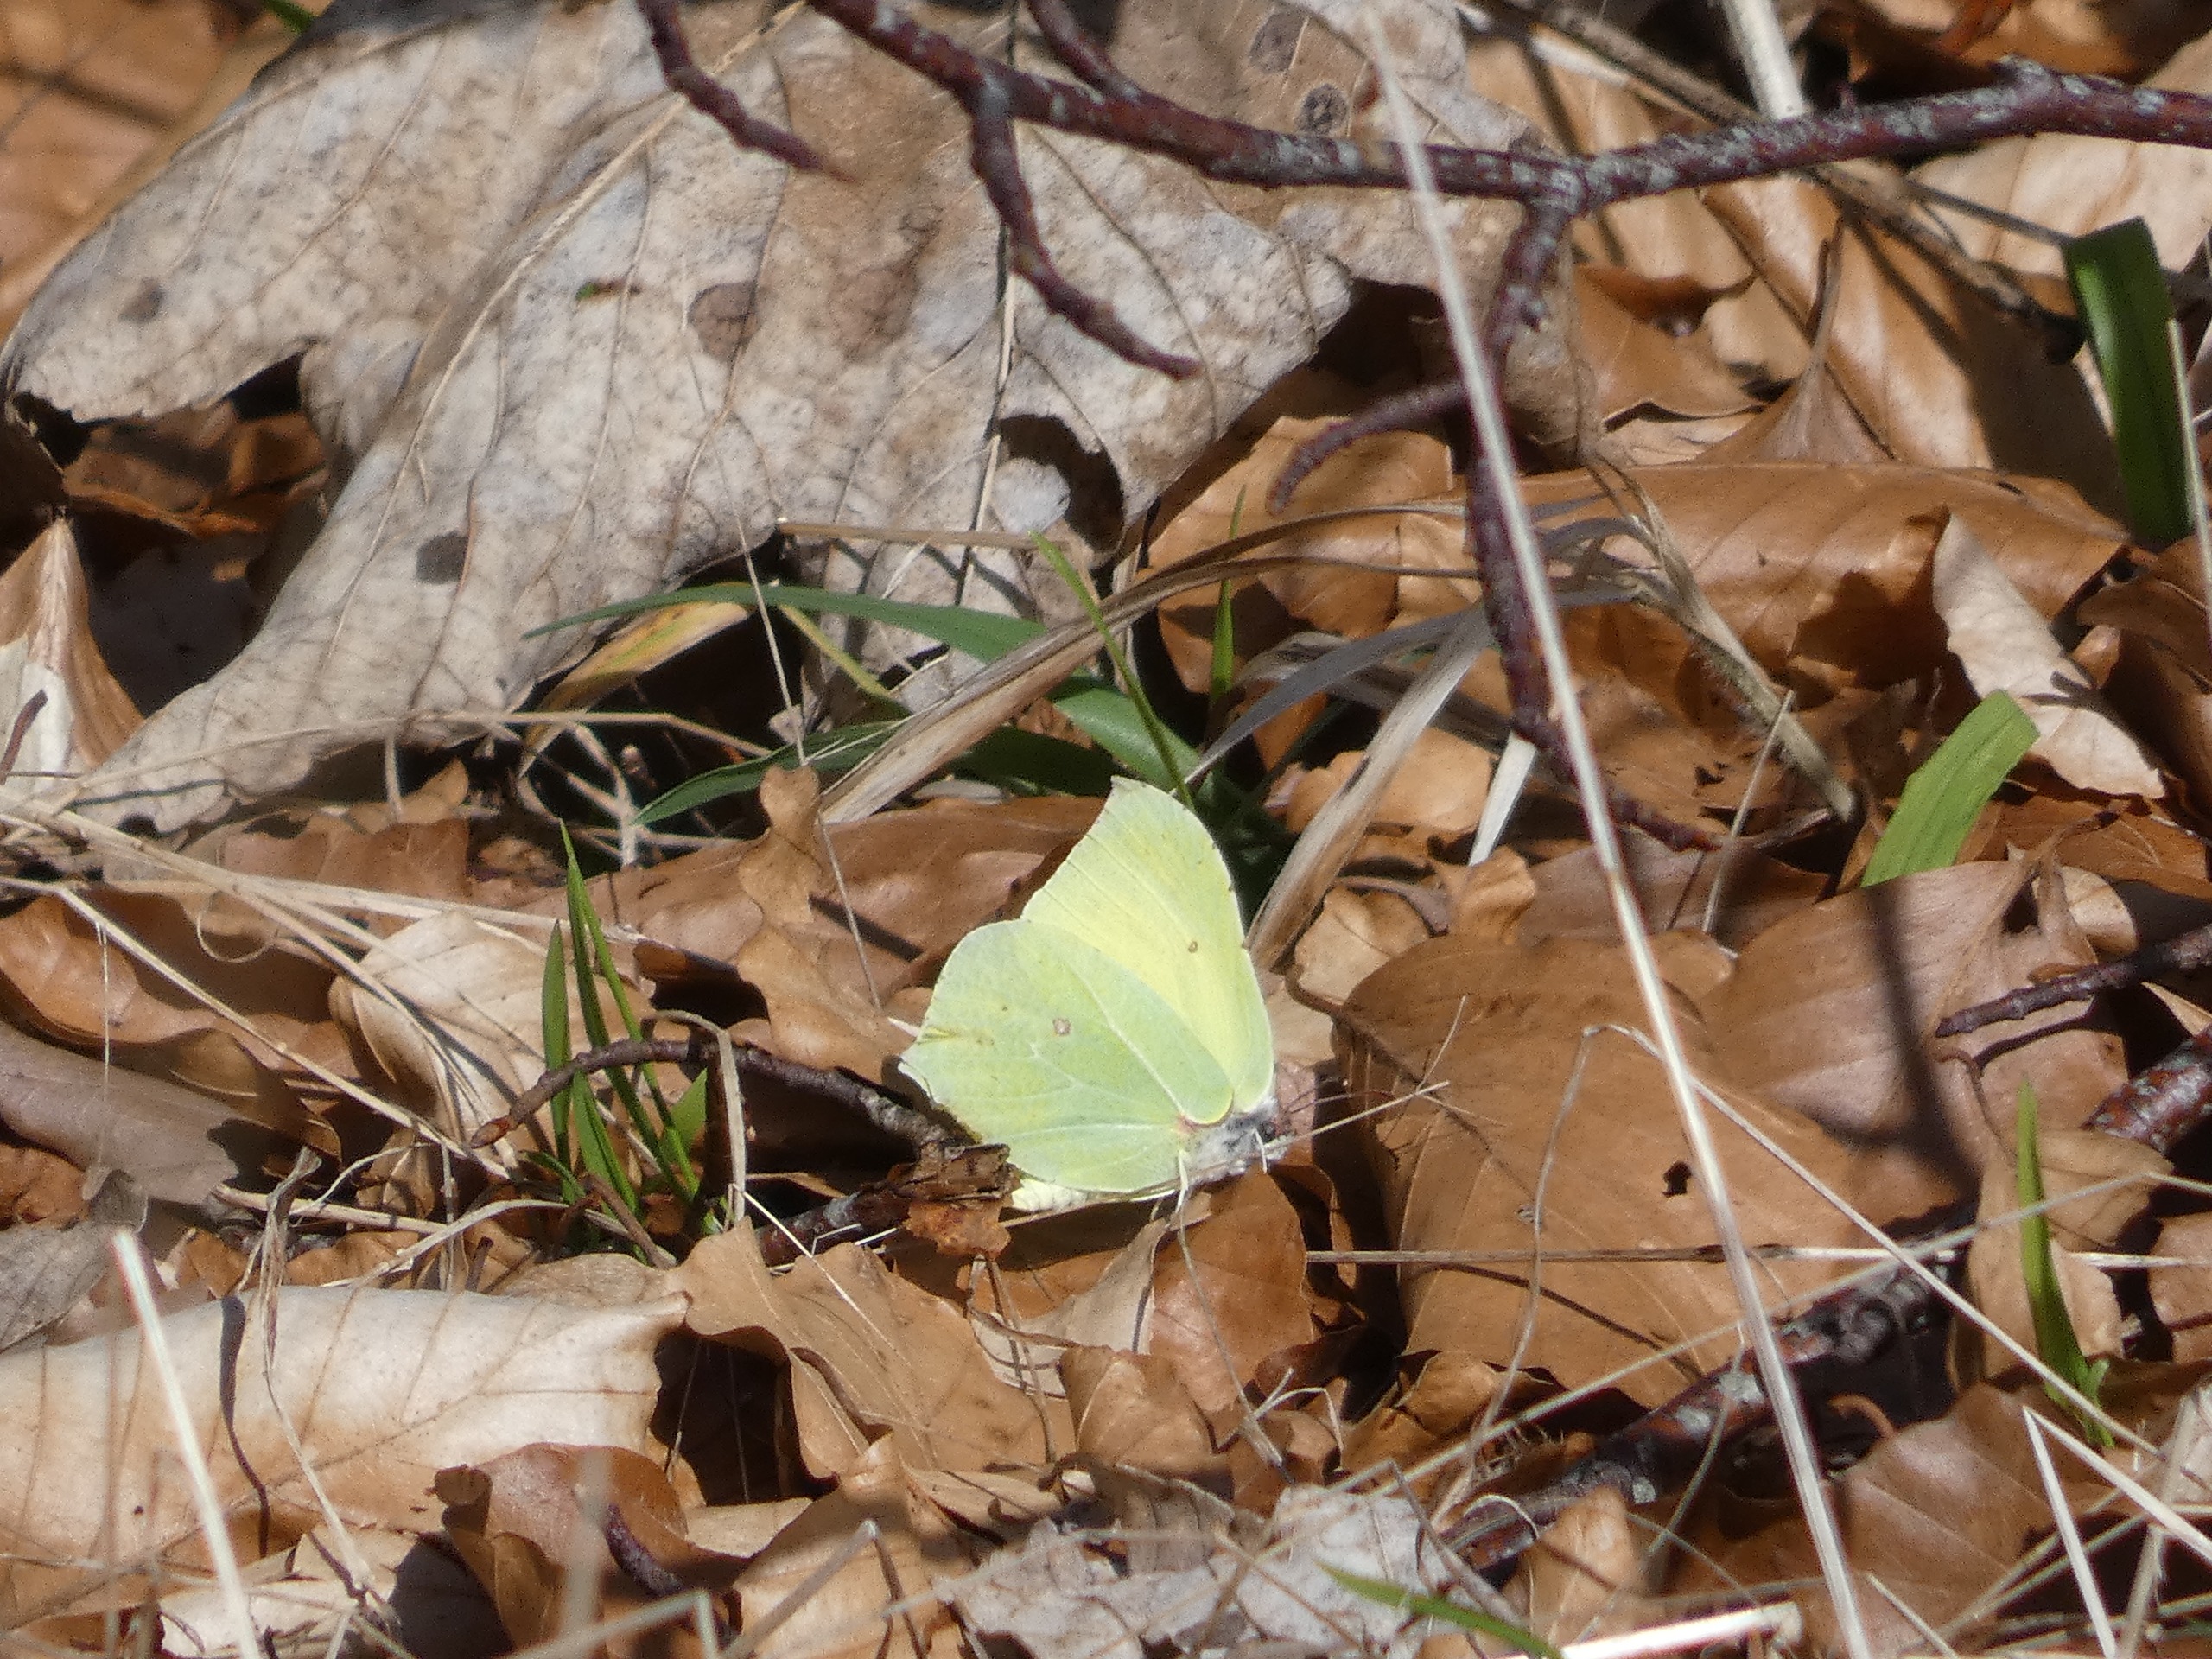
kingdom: Animalia
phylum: Arthropoda
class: Insecta
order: Lepidoptera
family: Pieridae
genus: Gonepteryx
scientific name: Gonepteryx rhamni
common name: Citronsommerfugl
